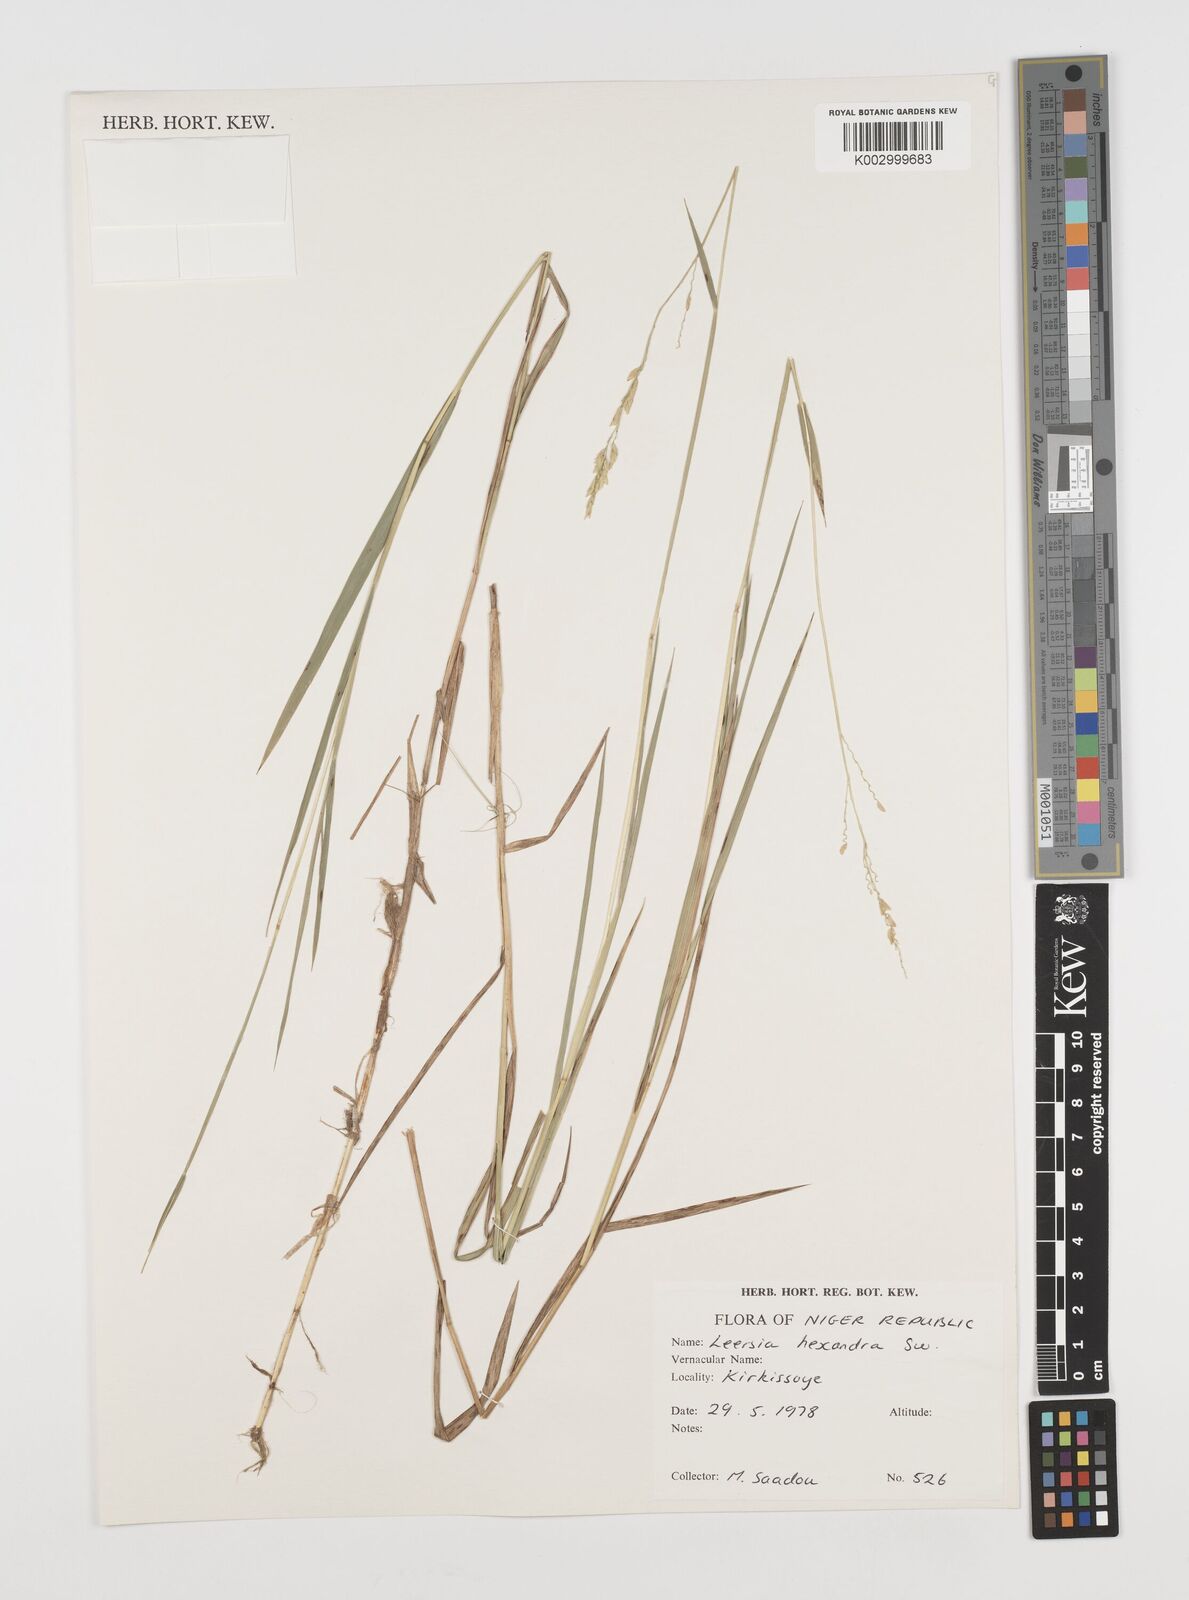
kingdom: Plantae
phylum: Tracheophyta
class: Liliopsida
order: Poales
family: Poaceae
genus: Leersia
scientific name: Leersia hexandra
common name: Southern cut grass
